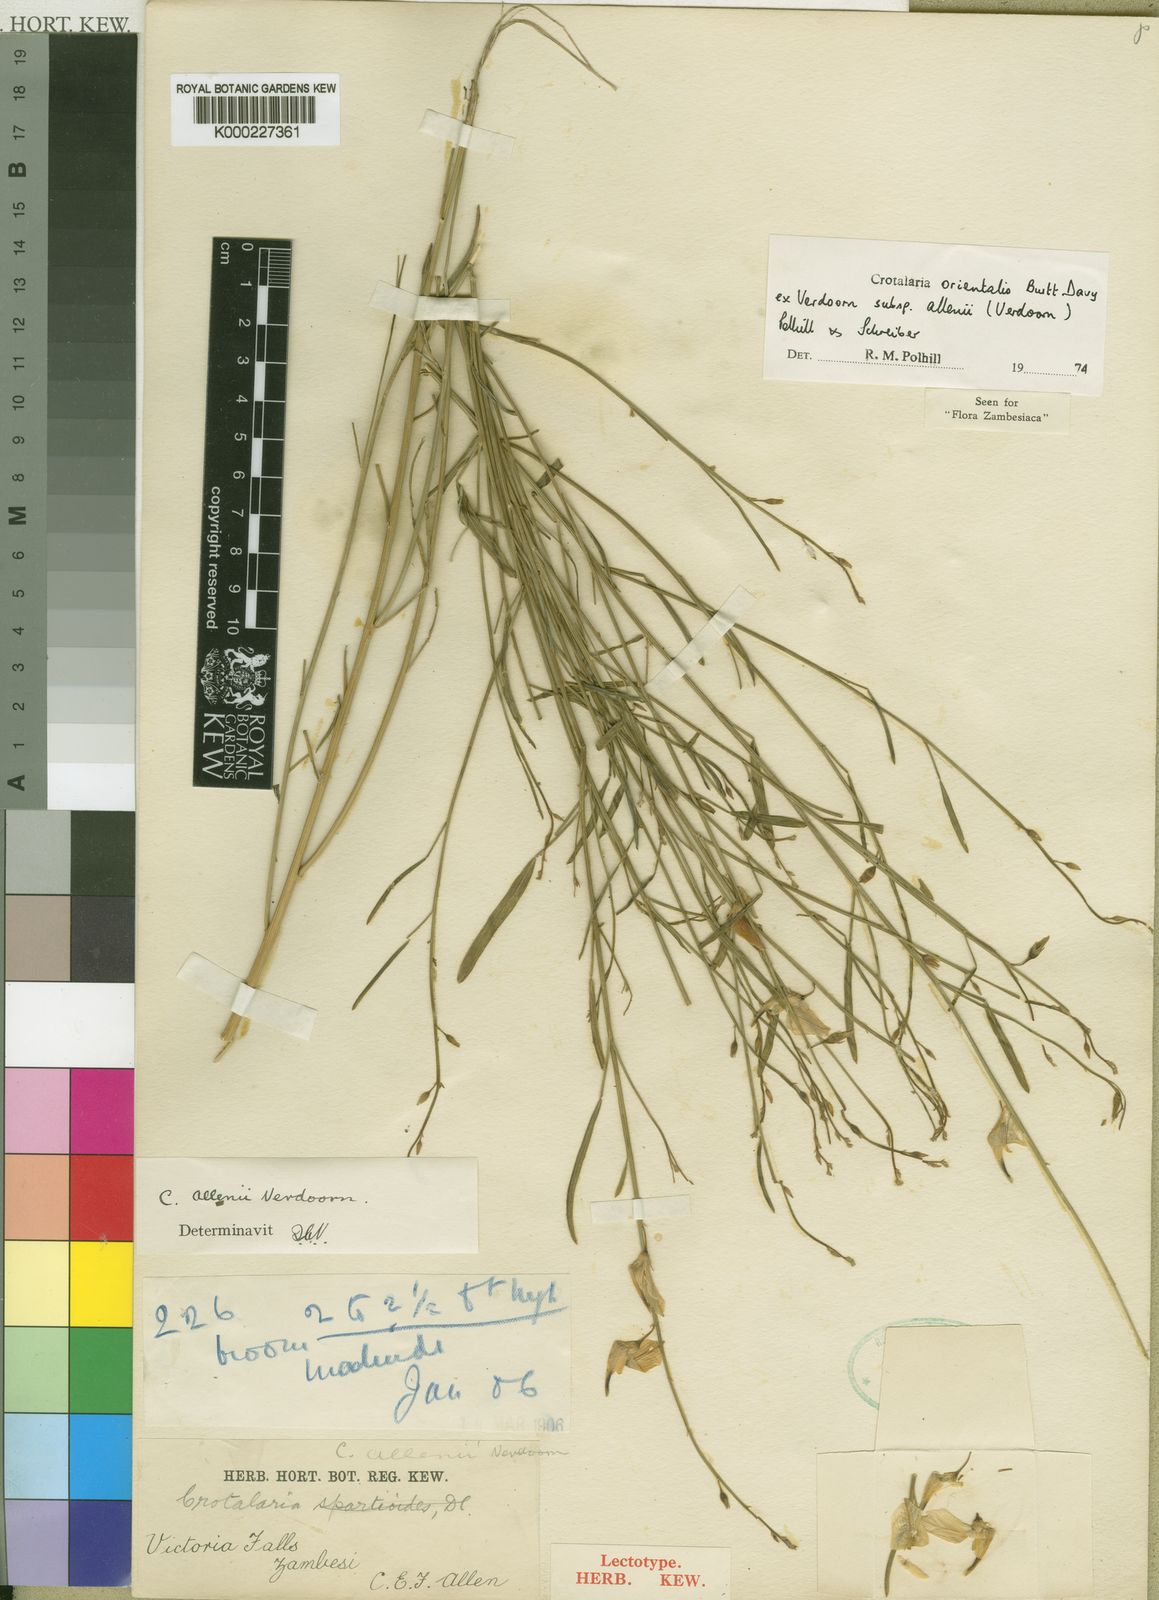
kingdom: Plantae
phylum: Tracheophyta
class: Magnoliopsida
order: Fabales
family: Fabaceae
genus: Crotalaria
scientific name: Crotalaria orientalis
